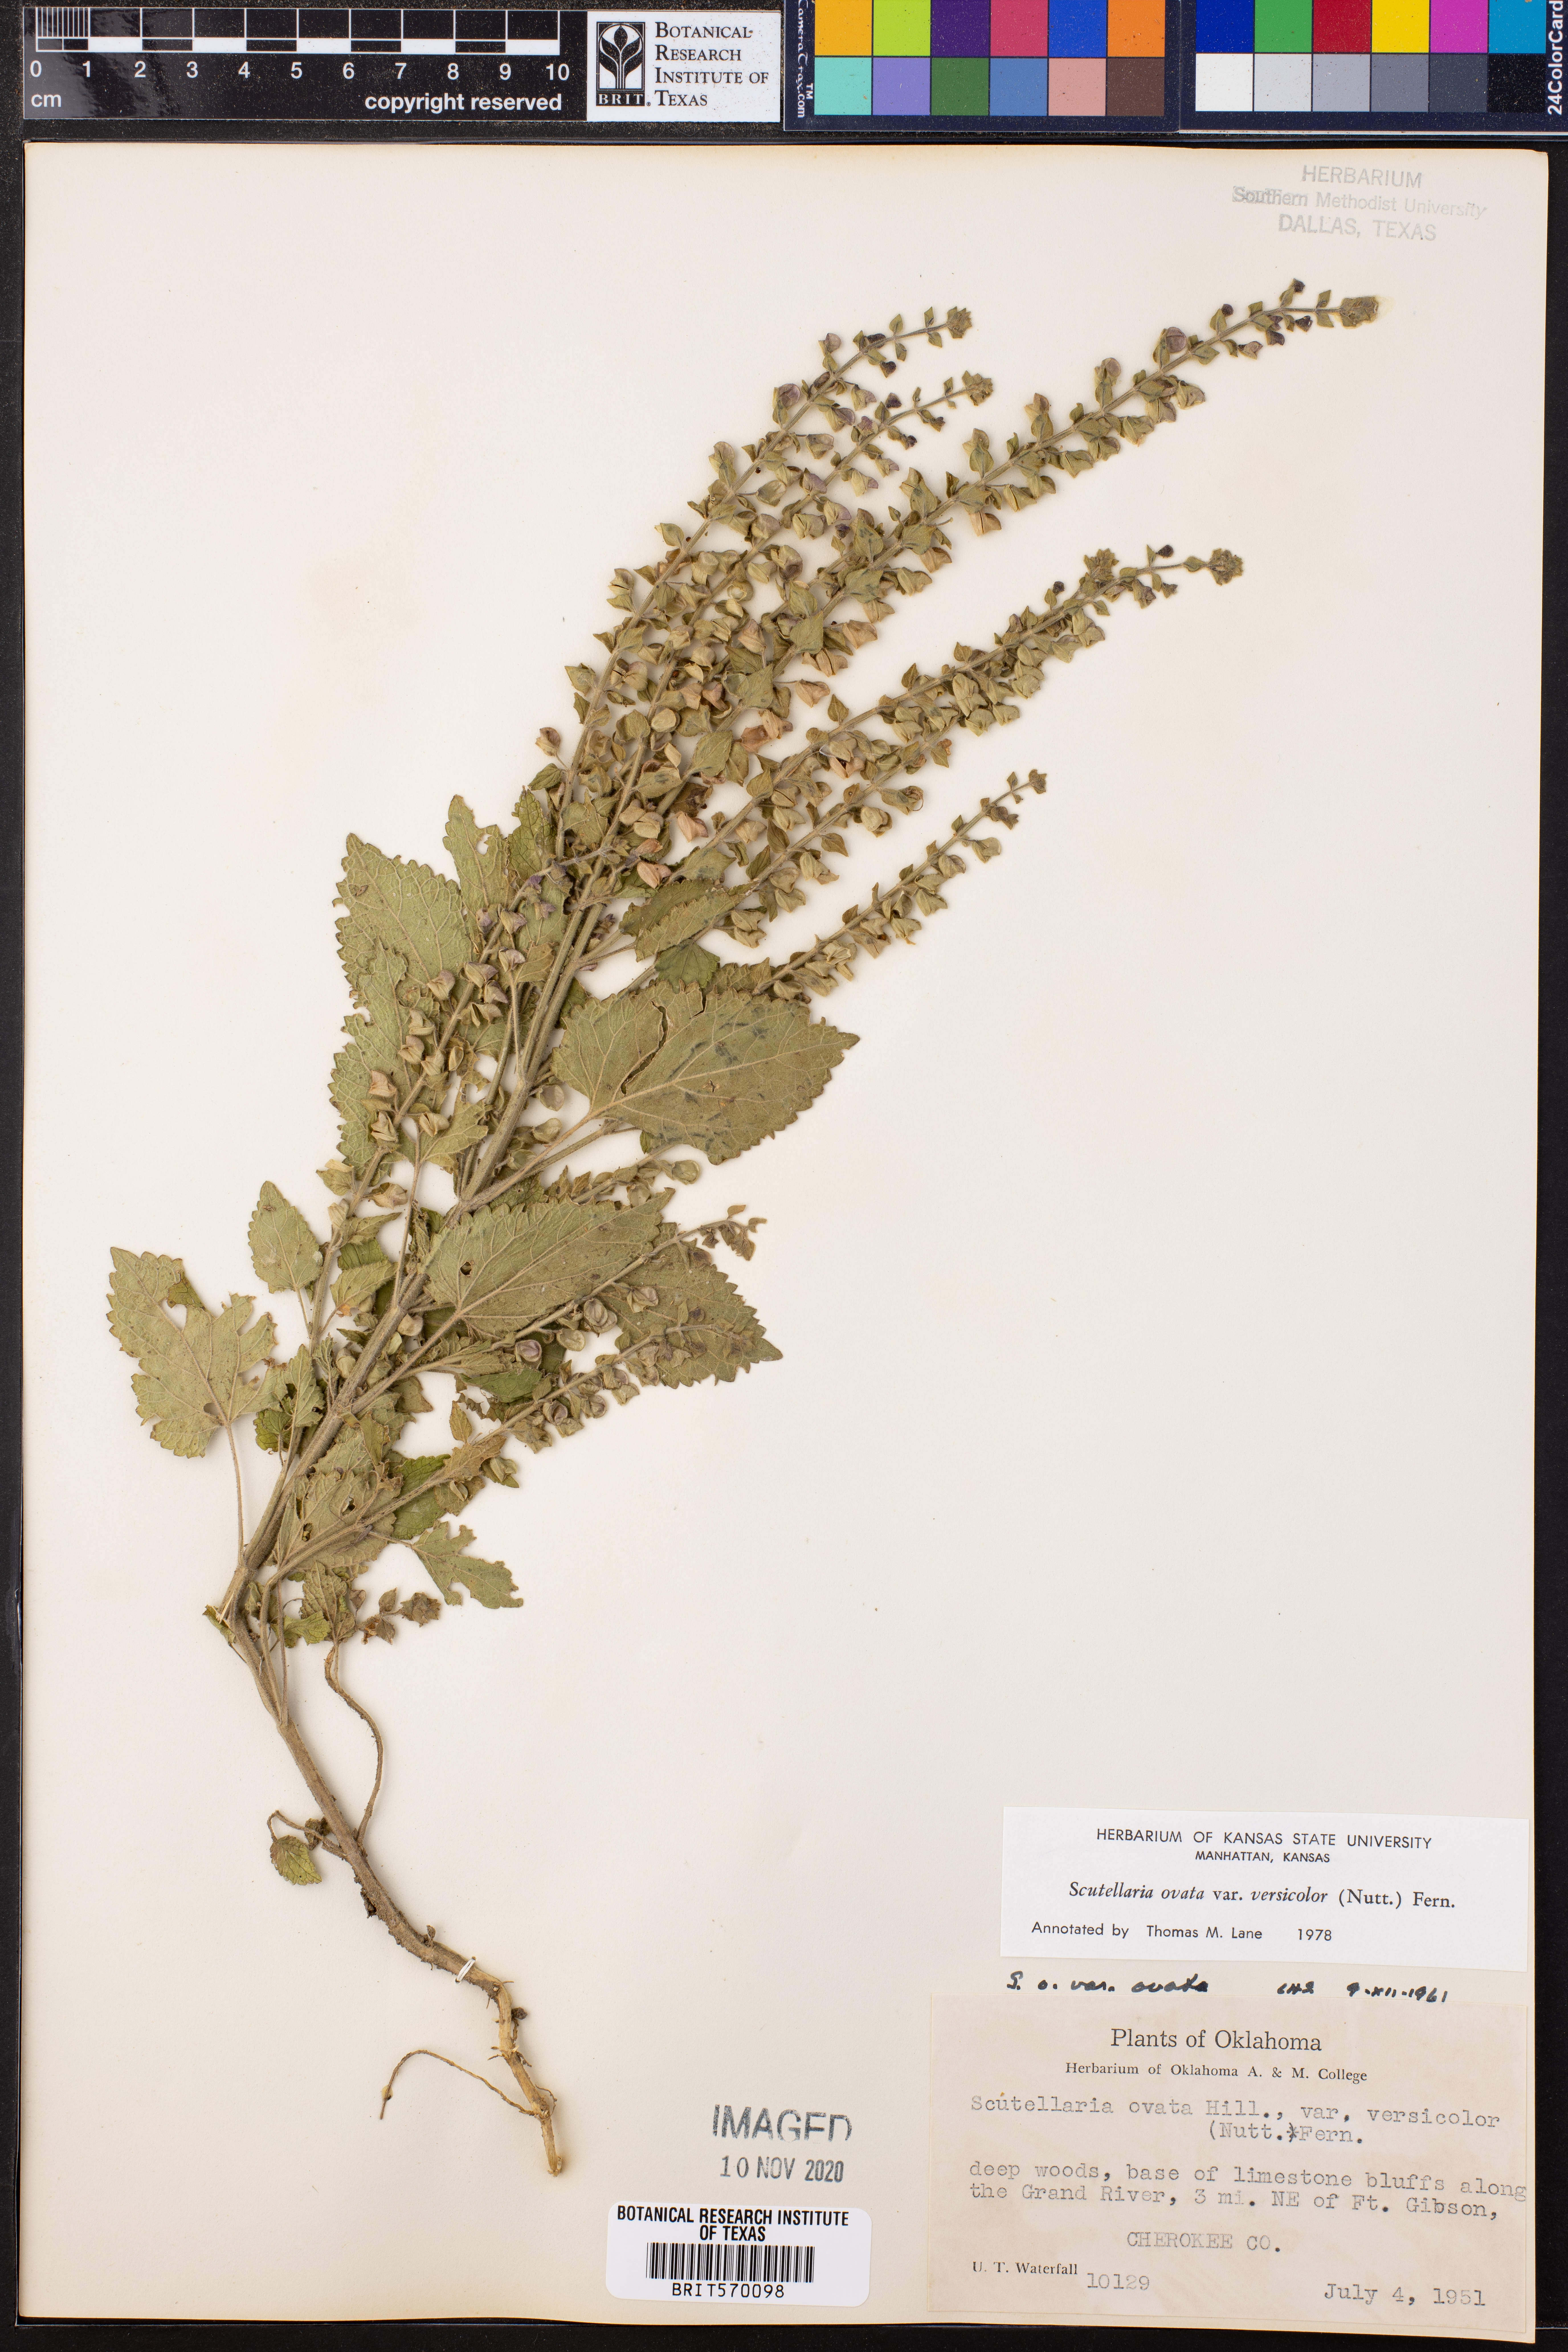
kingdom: Plantae
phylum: Tracheophyta
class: Magnoliopsida
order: Lamiales
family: Lamiaceae
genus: Scutellaria
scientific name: Scutellaria ovata
